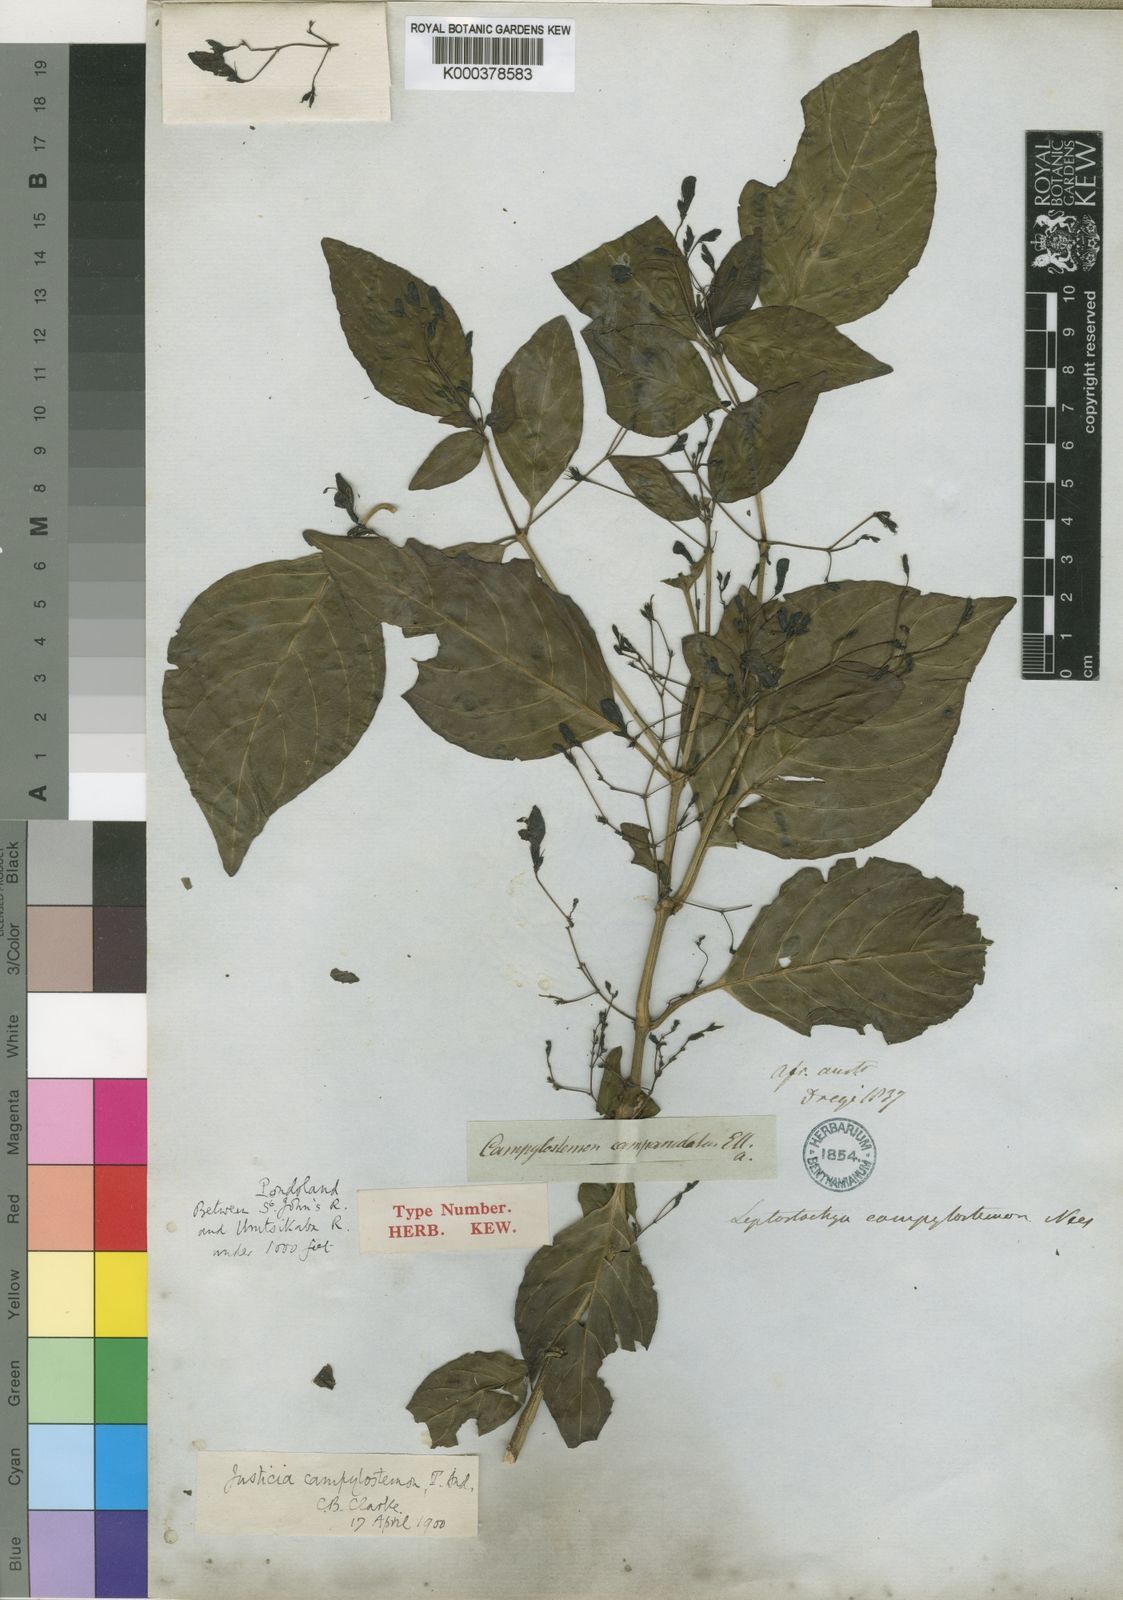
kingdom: Plantae
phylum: Tracheophyta
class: Magnoliopsida
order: Lamiales
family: Acanthaceae
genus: Justicia
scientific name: Justicia campylostemon
